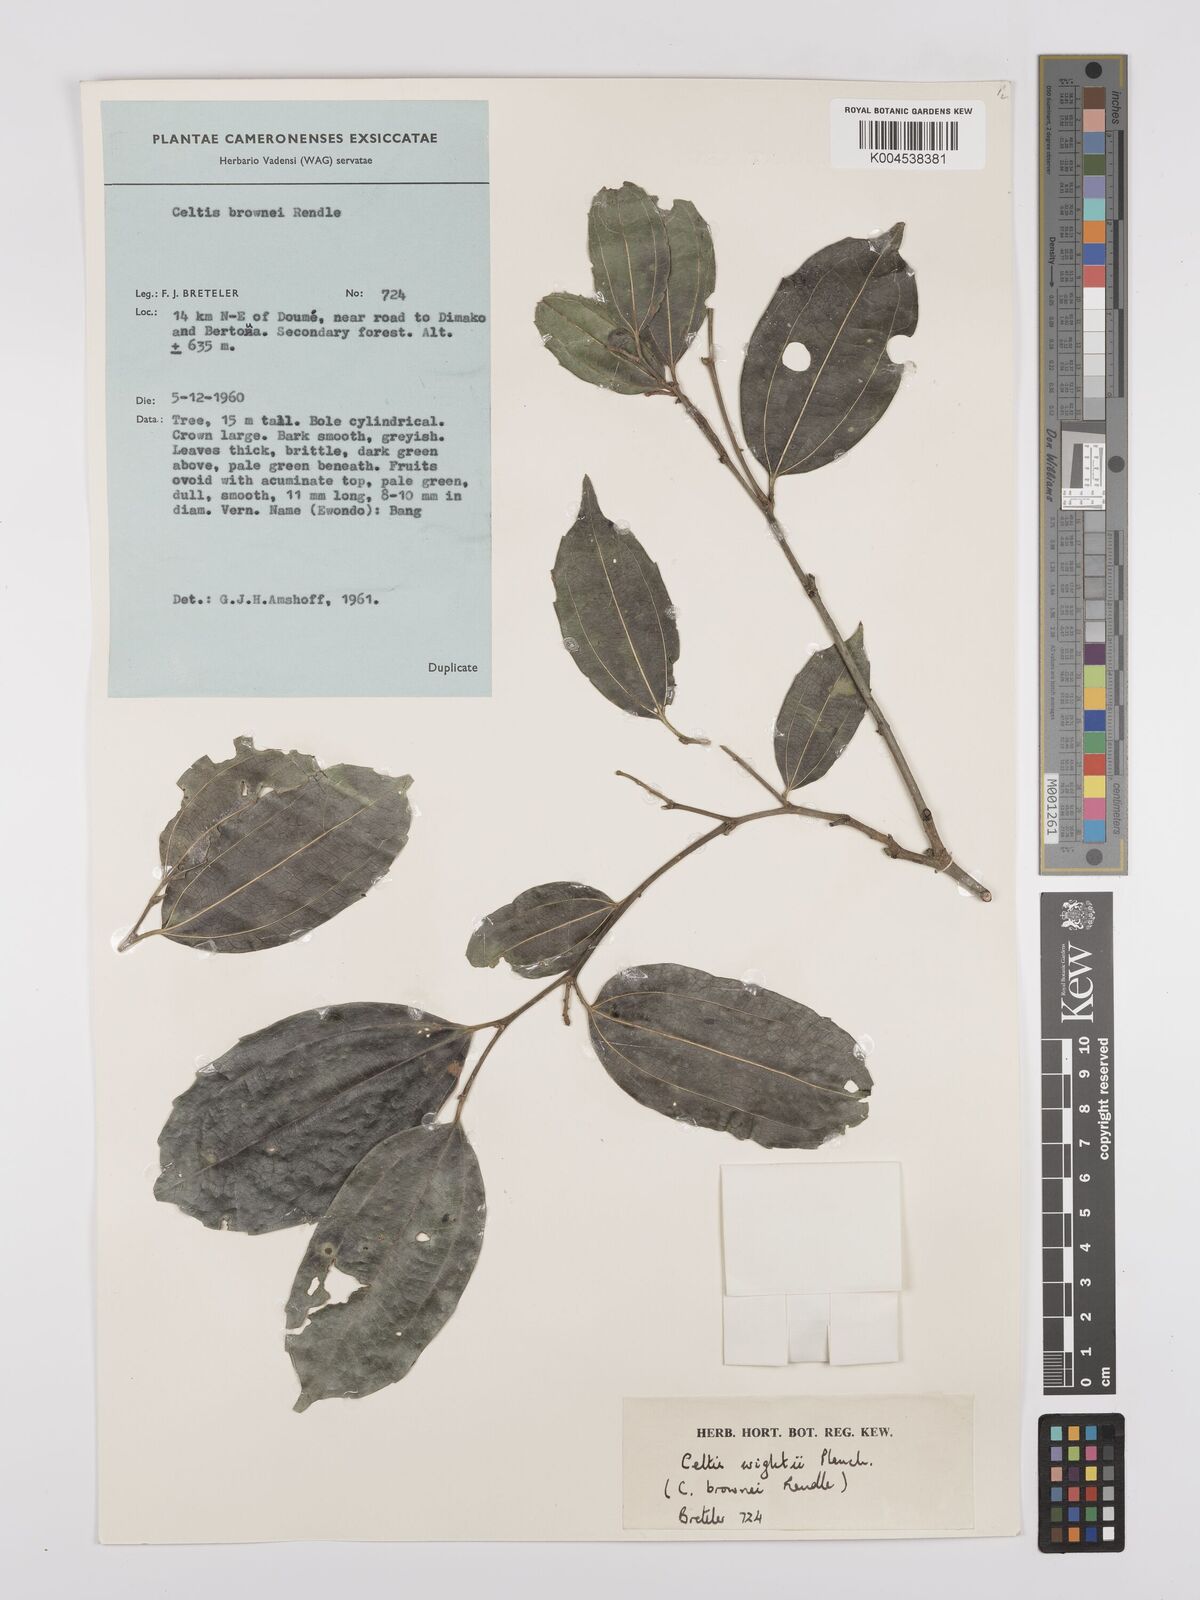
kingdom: Plantae
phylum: Tracheophyta
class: Magnoliopsida
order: Rosales
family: Cannabaceae
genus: Celtis
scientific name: Celtis philippensis
